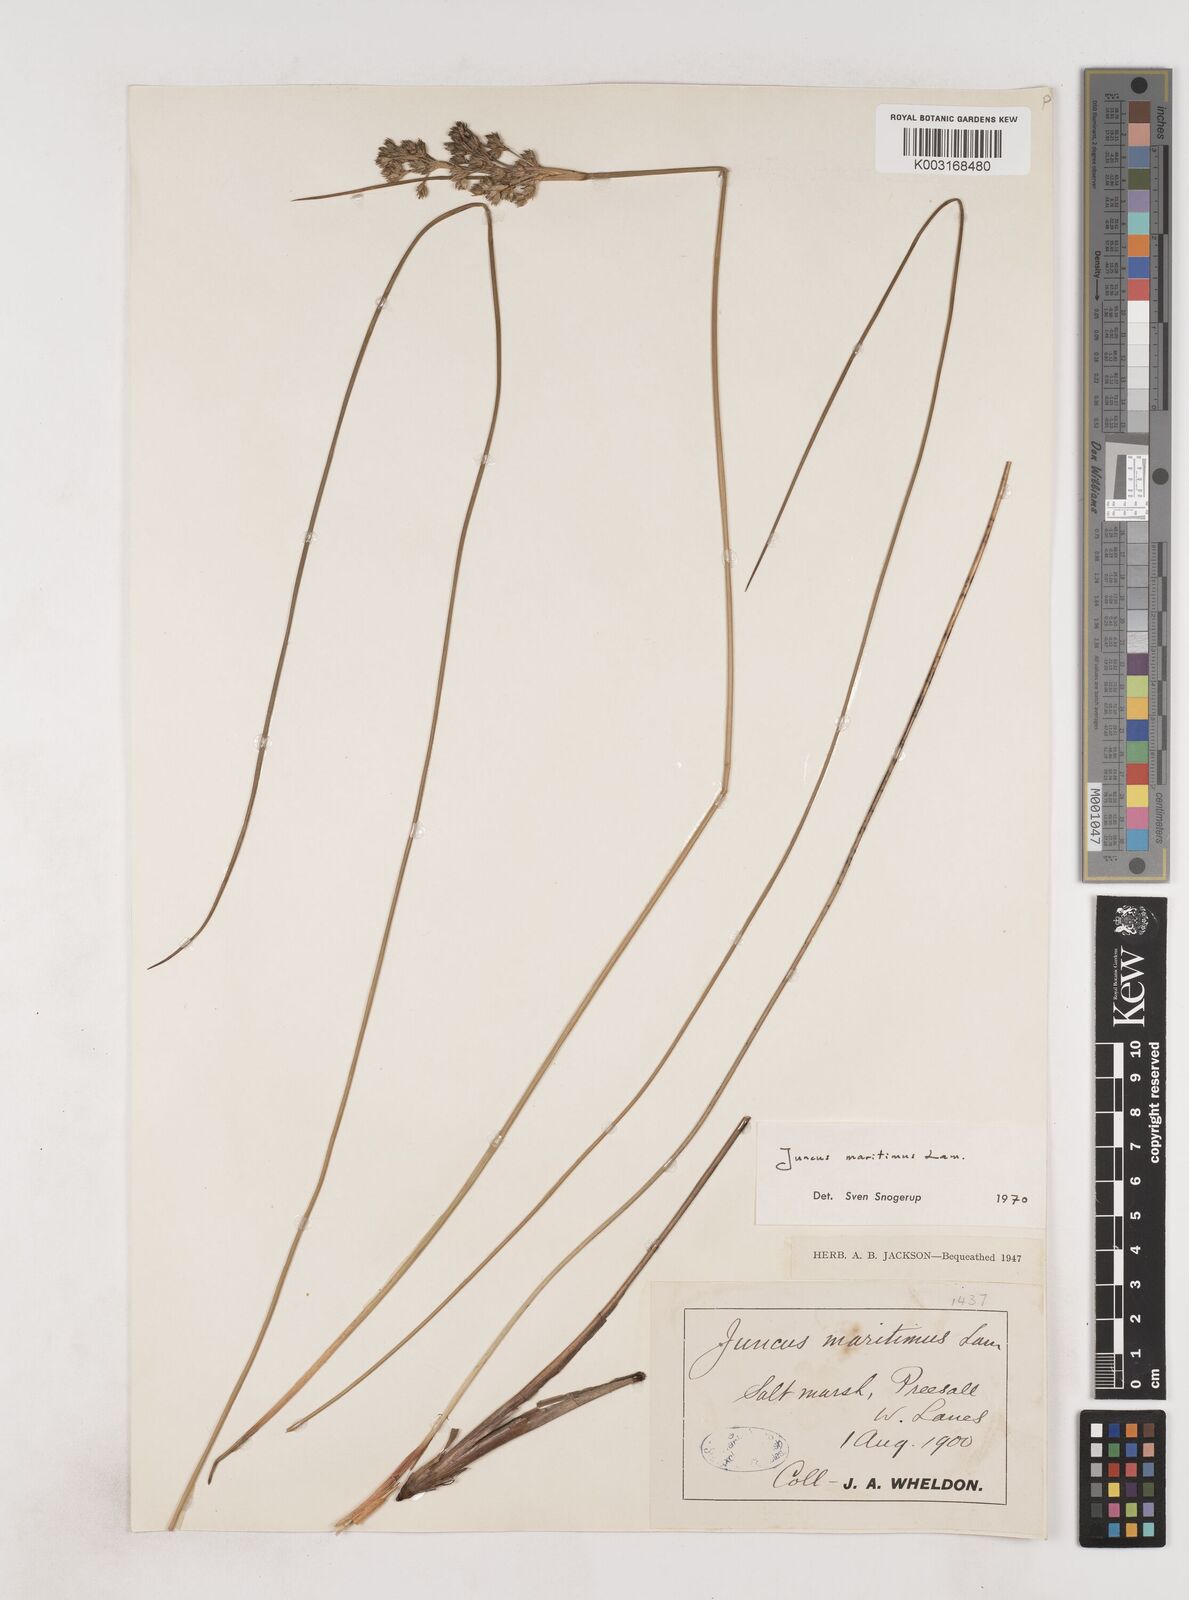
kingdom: Plantae
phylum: Tracheophyta
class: Liliopsida
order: Poales
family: Juncaceae
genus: Juncus
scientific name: Juncus maritimus
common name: Sea rush
